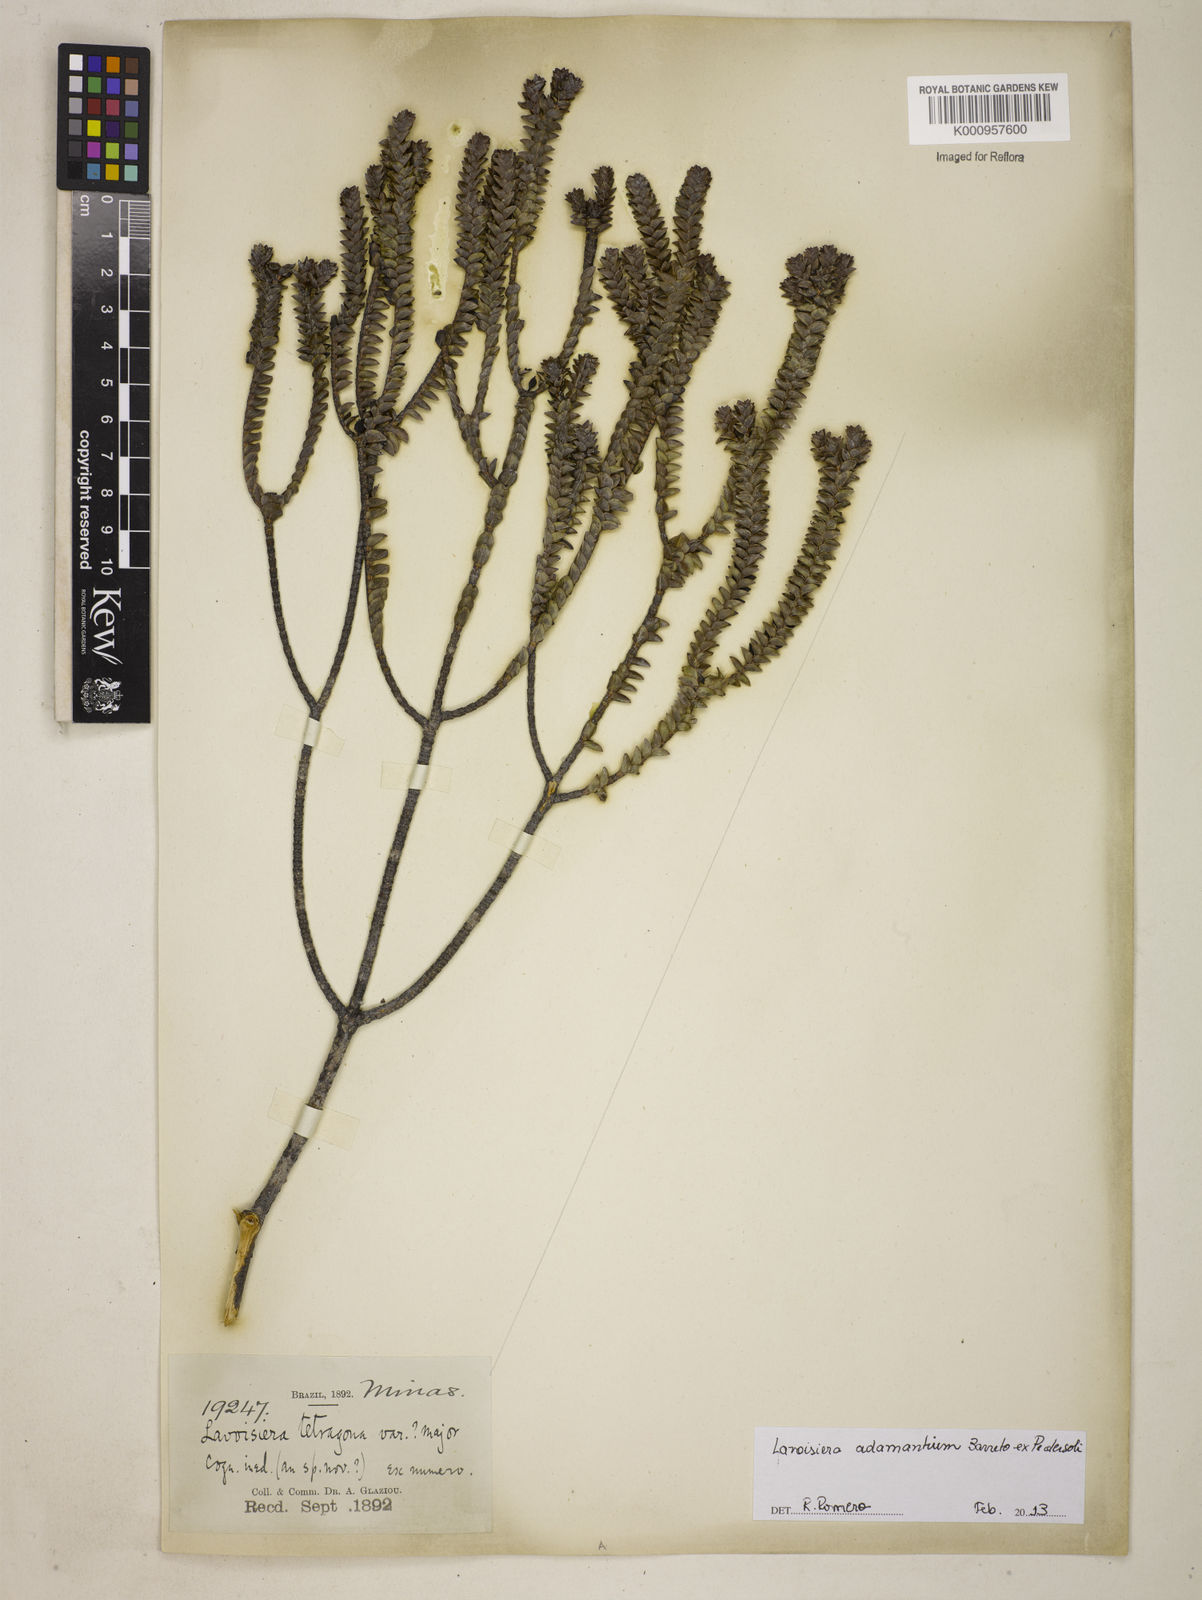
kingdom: Plantae
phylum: Tracheophyta
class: Magnoliopsida
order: Myrtales
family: Melastomataceae
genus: Microlicia
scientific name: Microlicia belinelloi
